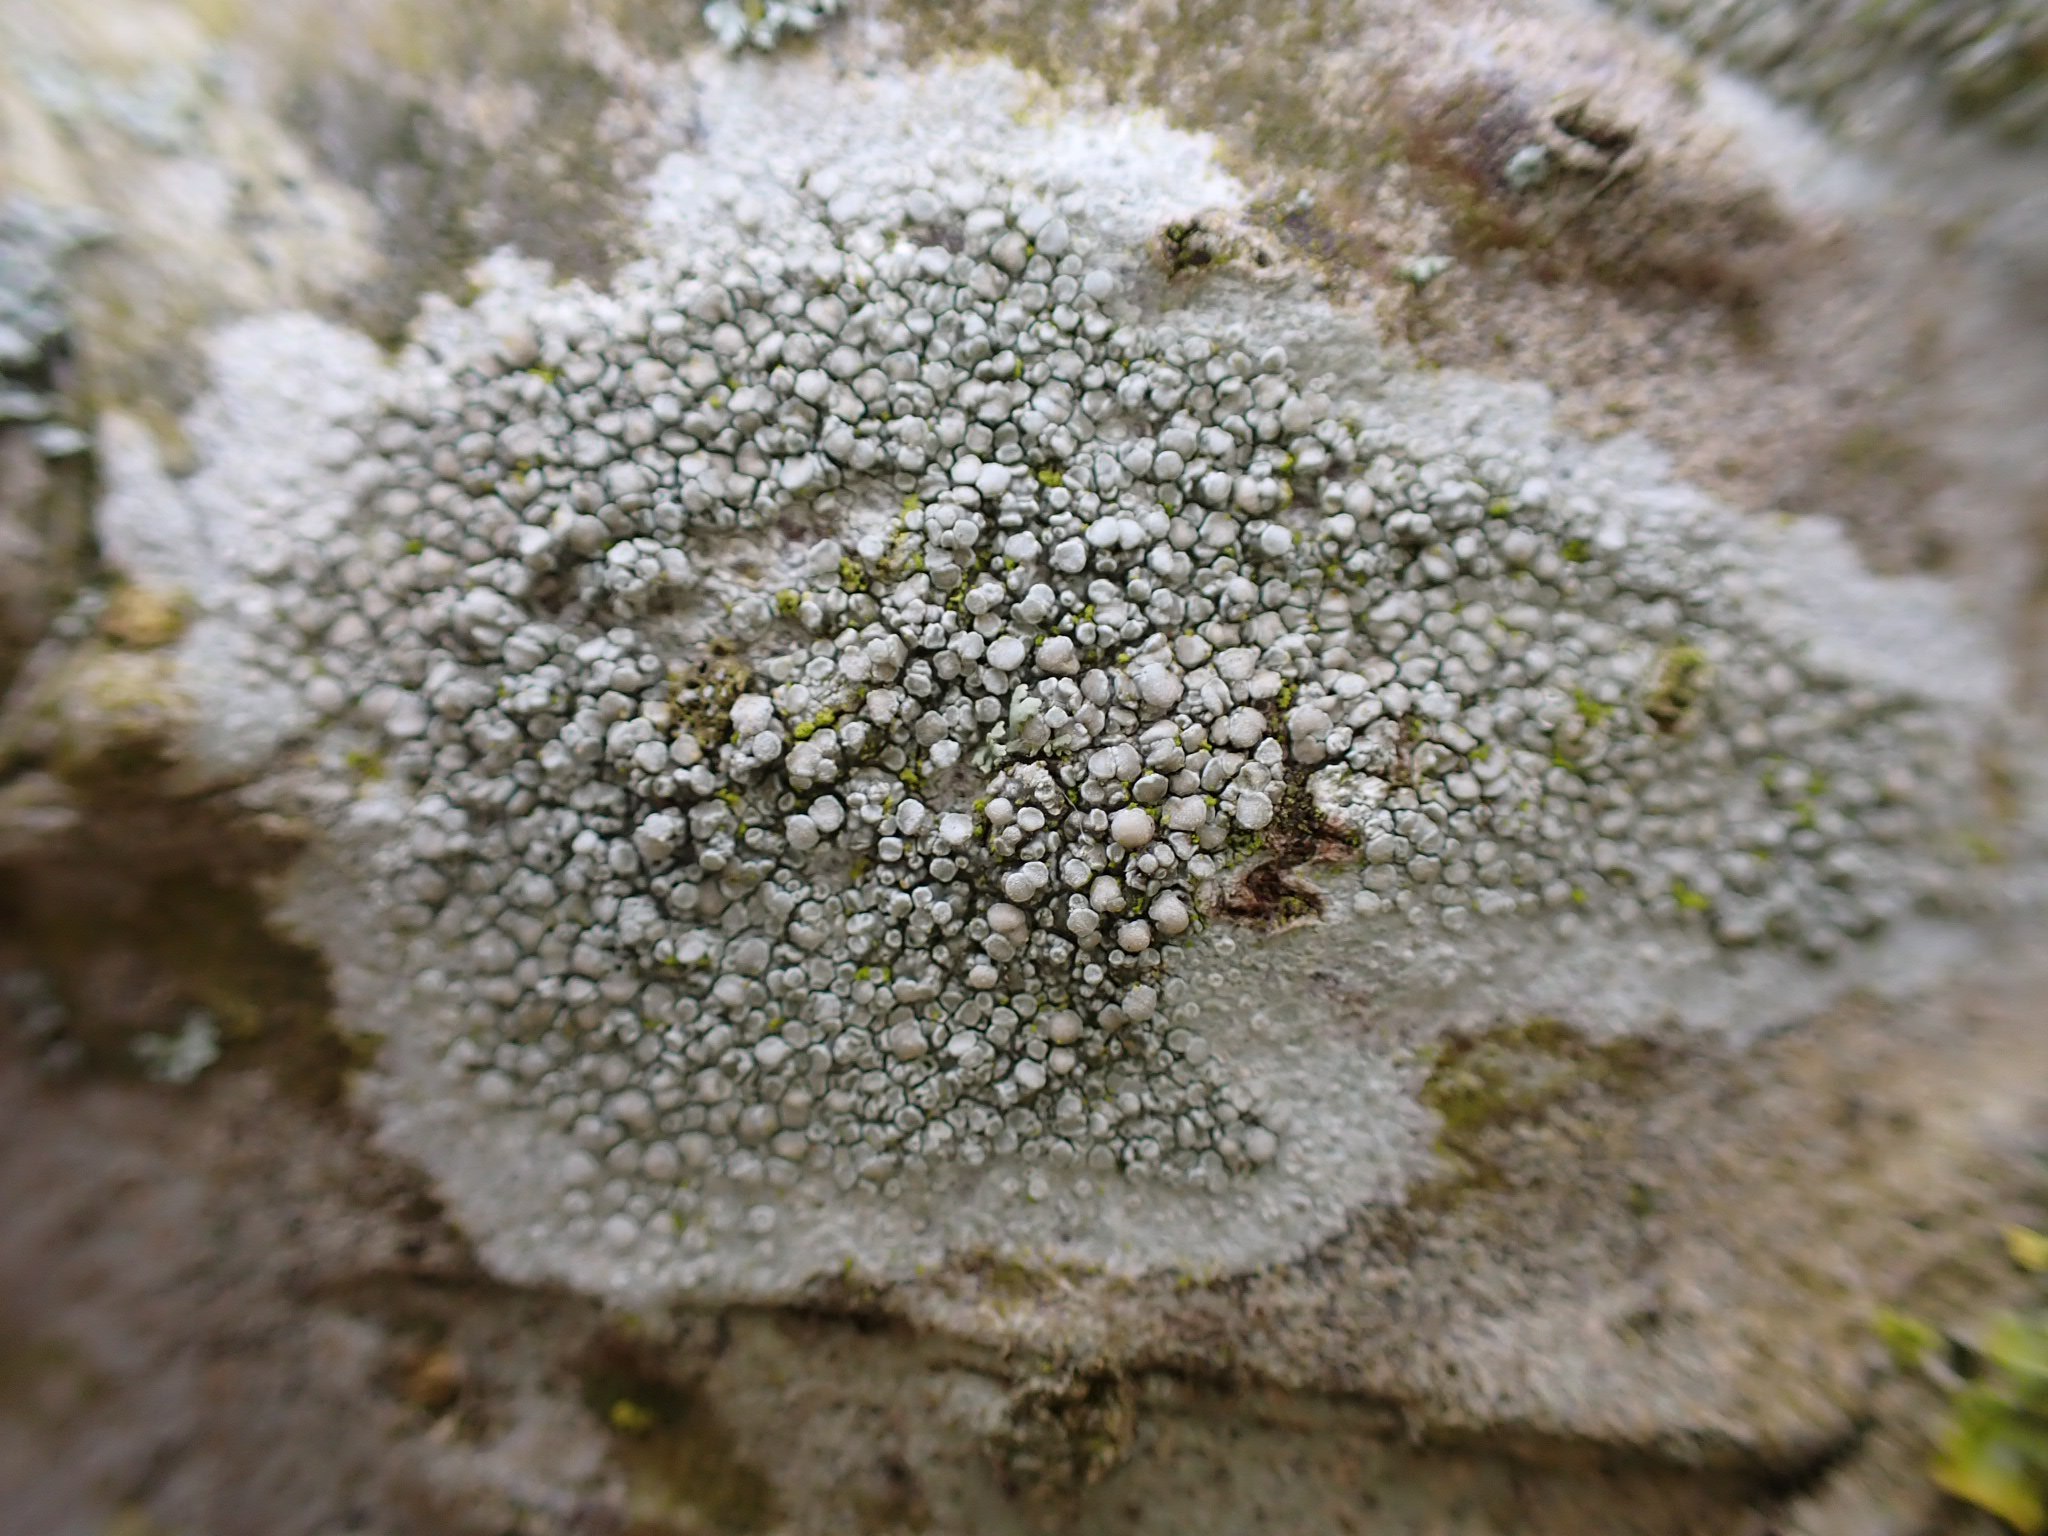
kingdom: Fungi
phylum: Ascomycota
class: Lecanoromycetes
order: Lecanorales
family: Lecanoraceae
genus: Glaucomaria
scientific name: Glaucomaria carpinea
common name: hviddugget kantskivelav
